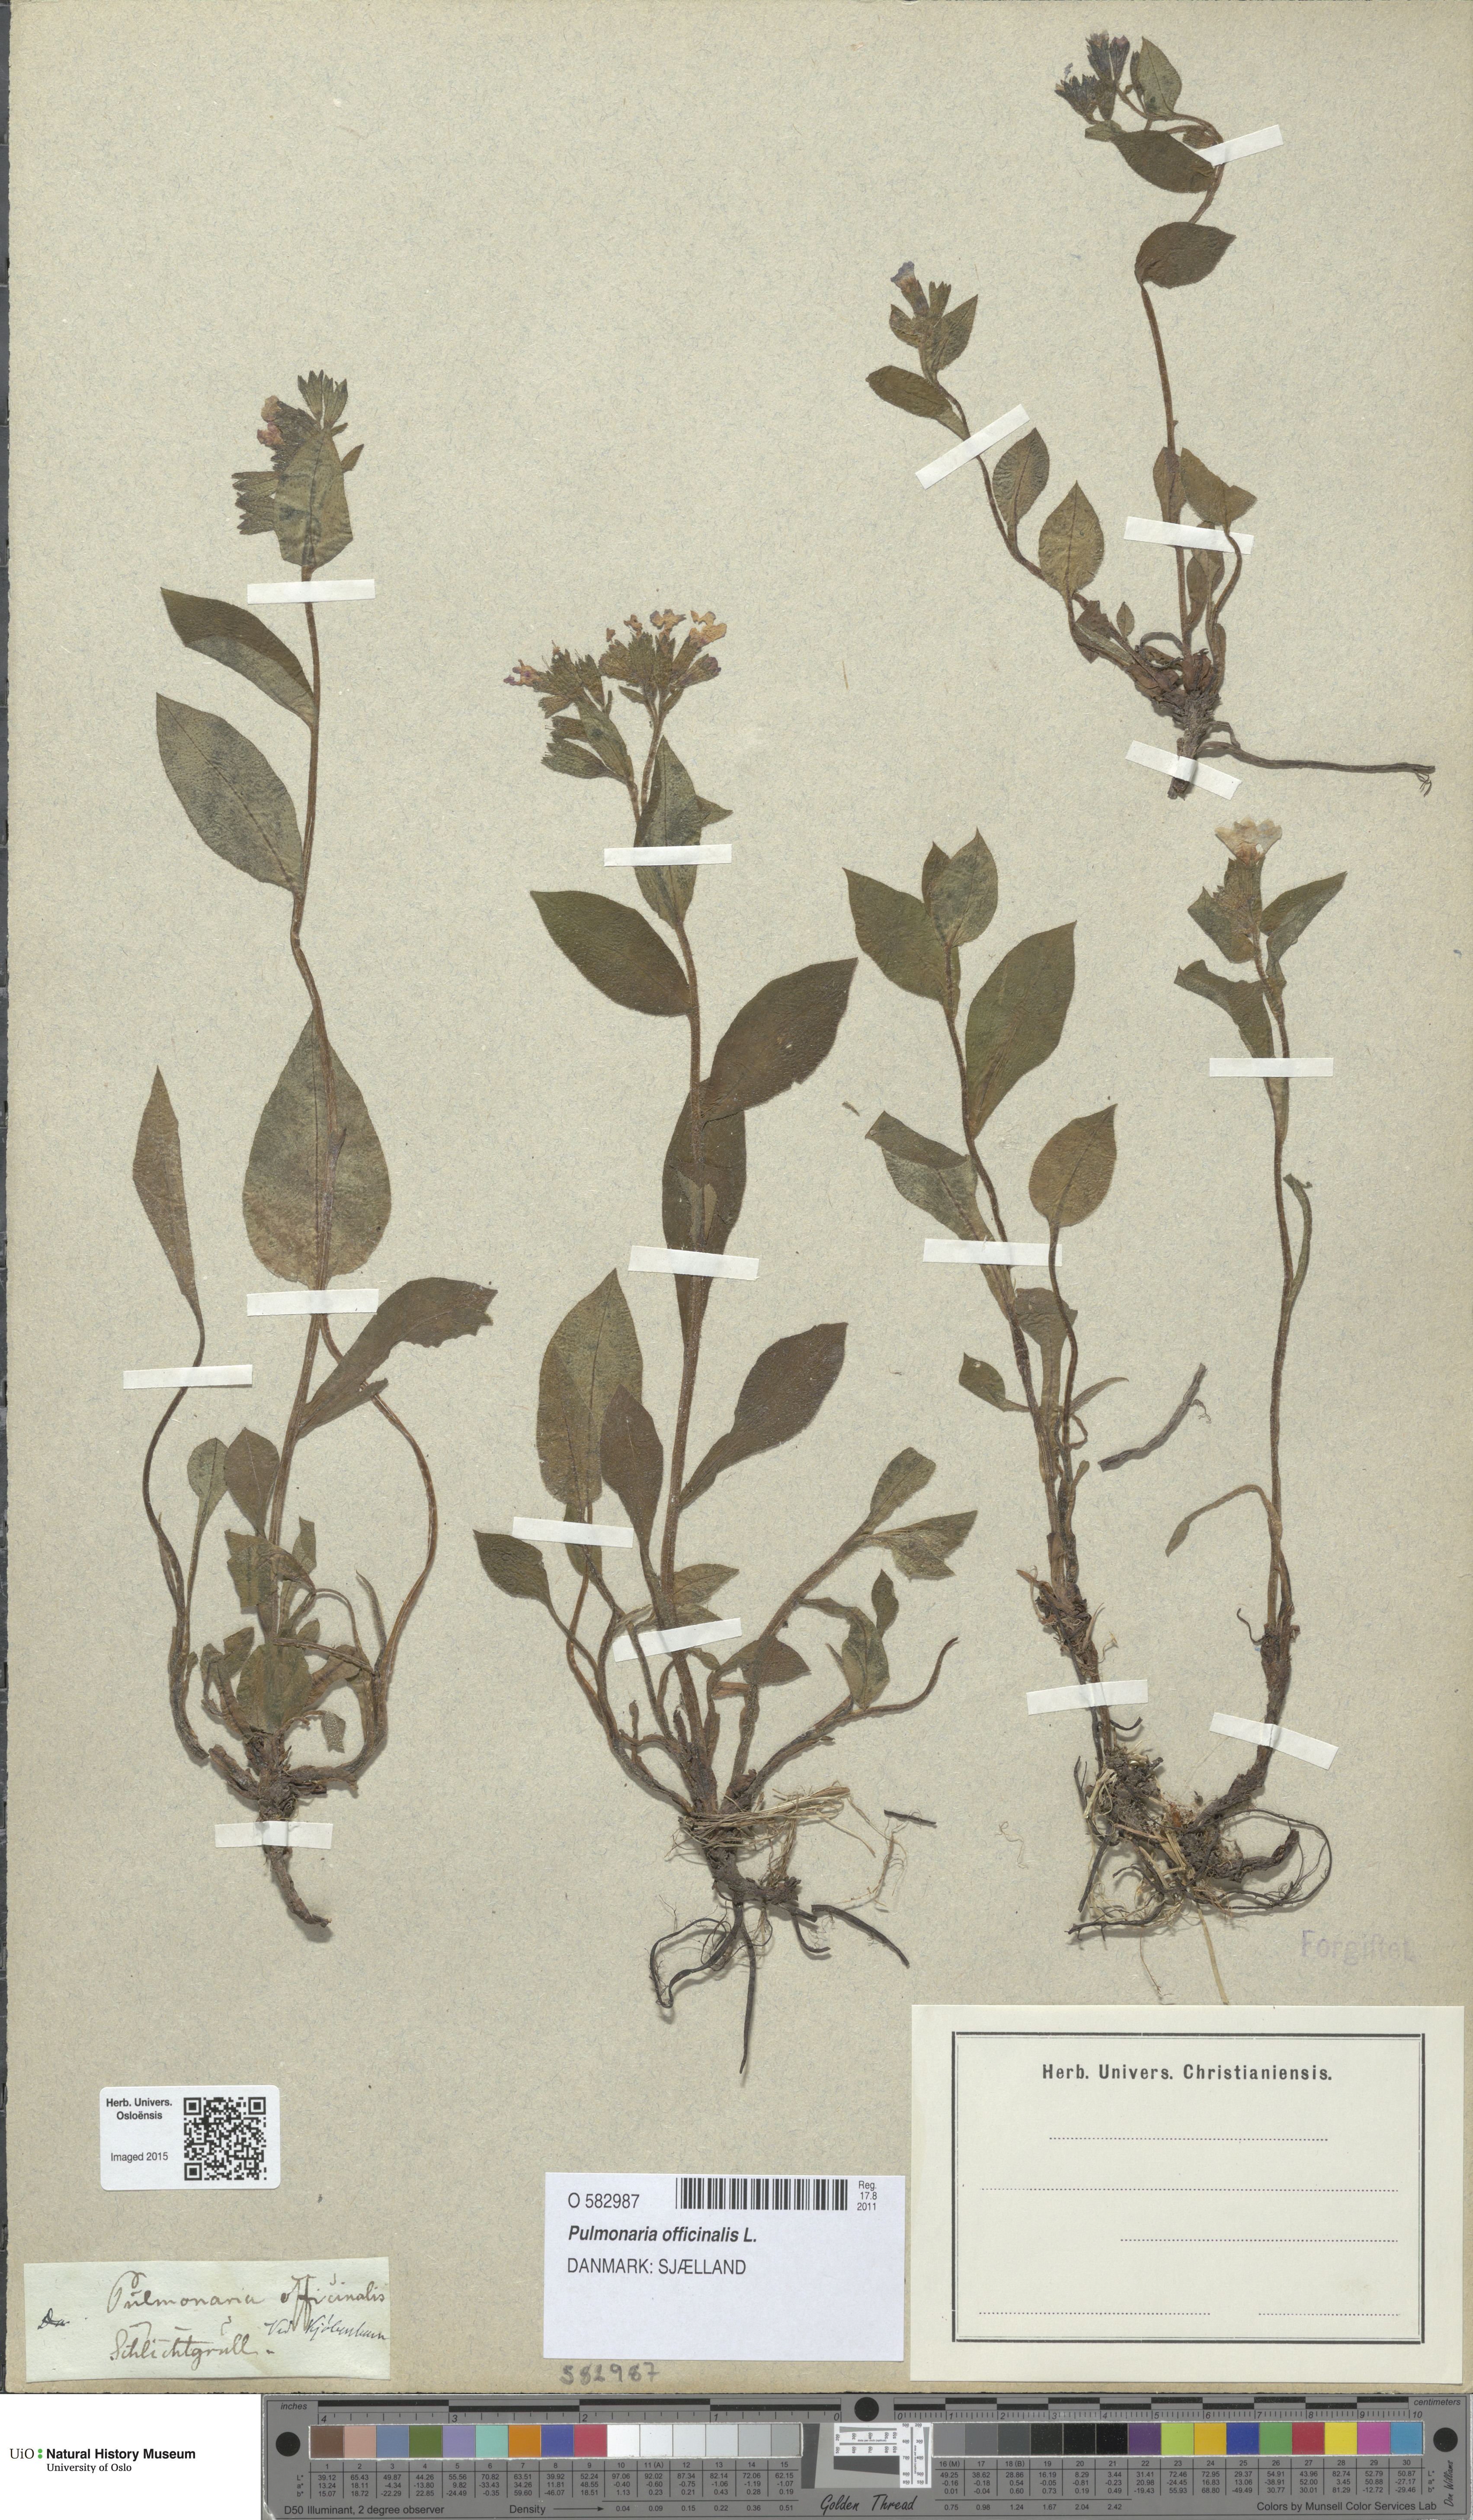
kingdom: Plantae
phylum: Tracheophyta
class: Magnoliopsida
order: Boraginales
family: Boraginaceae
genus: Pulmonaria
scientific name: Pulmonaria officinalis
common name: Lungwort
